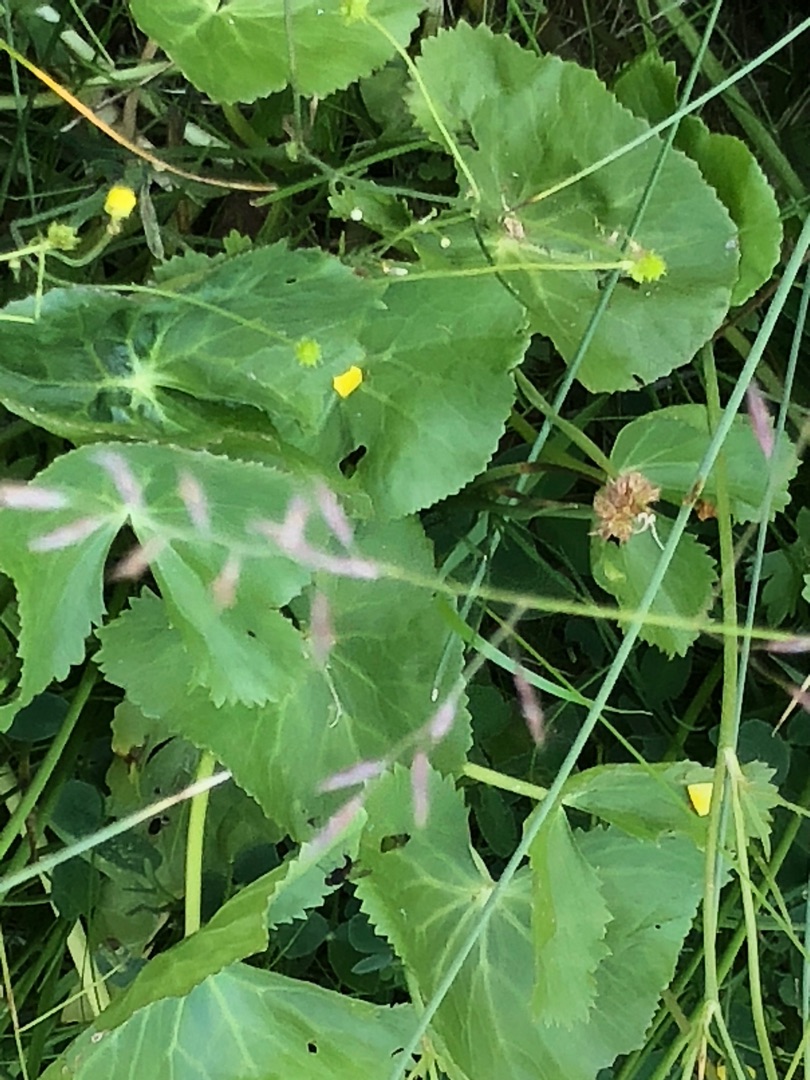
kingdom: Plantae
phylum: Tracheophyta
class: Magnoliopsida
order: Ranunculales
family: Ranunculaceae
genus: Caltha
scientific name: Caltha palustris
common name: Eng-kabbeleje
